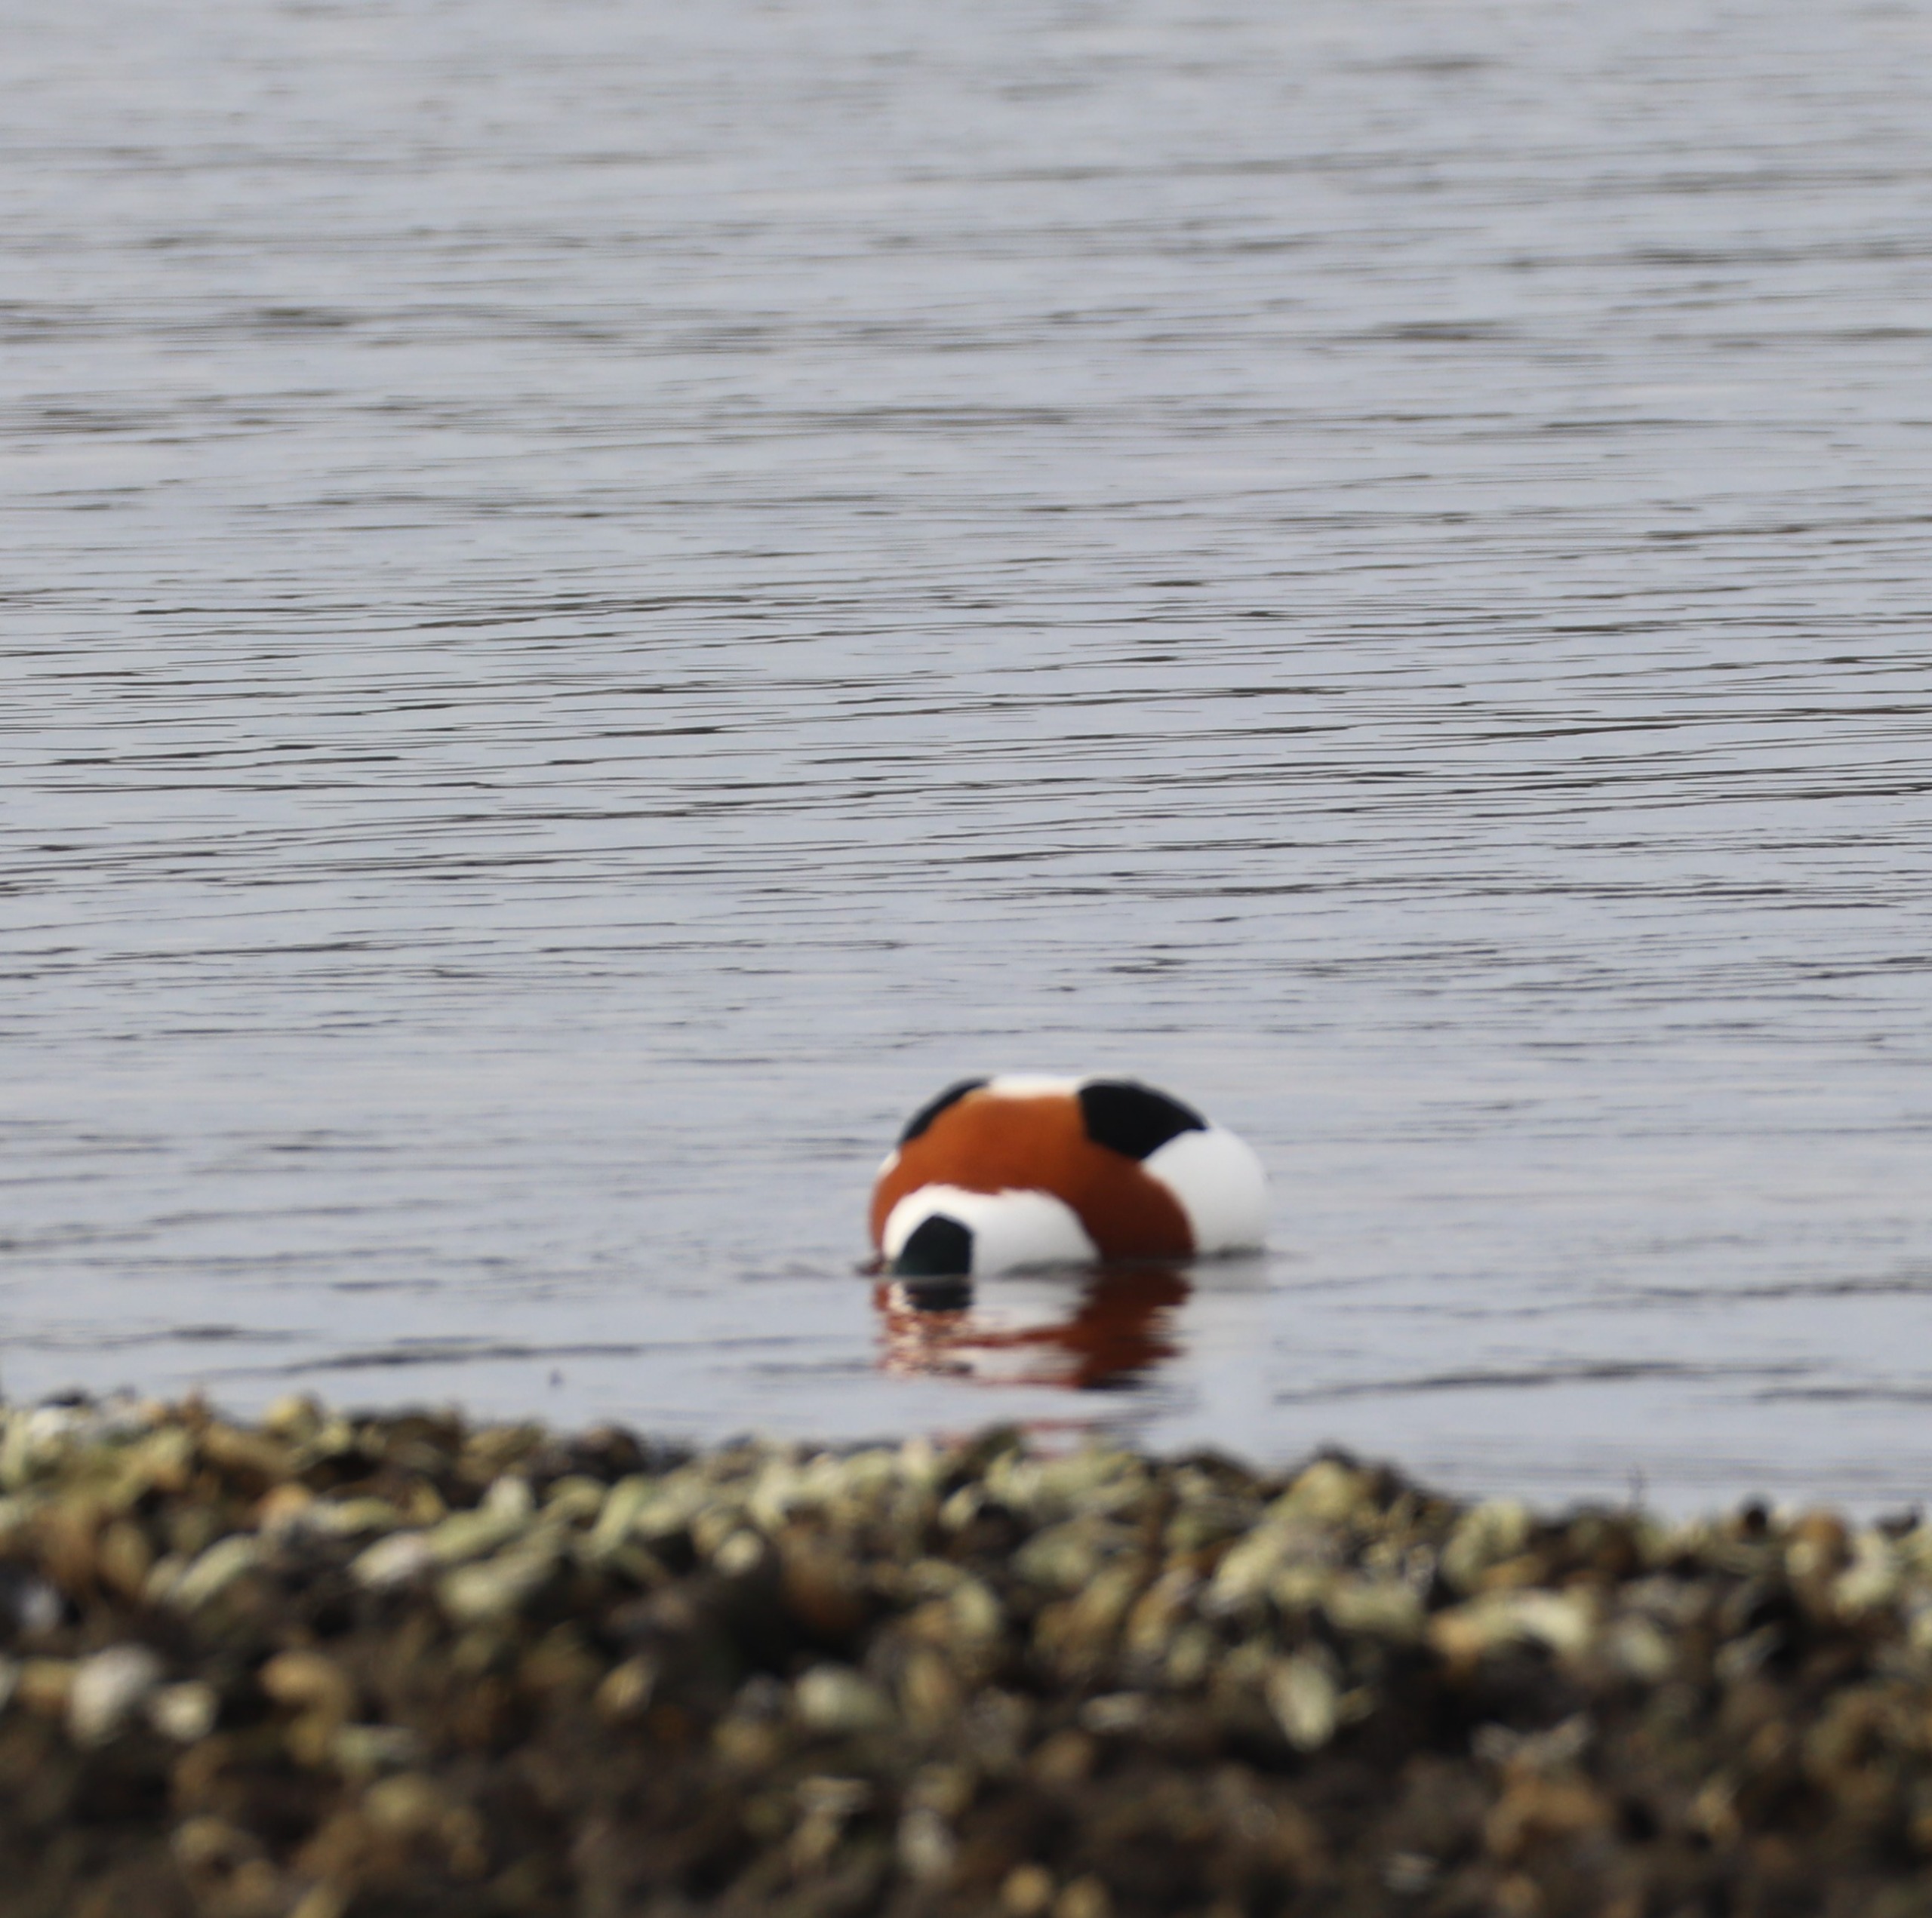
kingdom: Animalia
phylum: Chordata
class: Aves
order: Anseriformes
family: Anatidae
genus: Tadorna
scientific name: Tadorna tadorna
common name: Gravand
